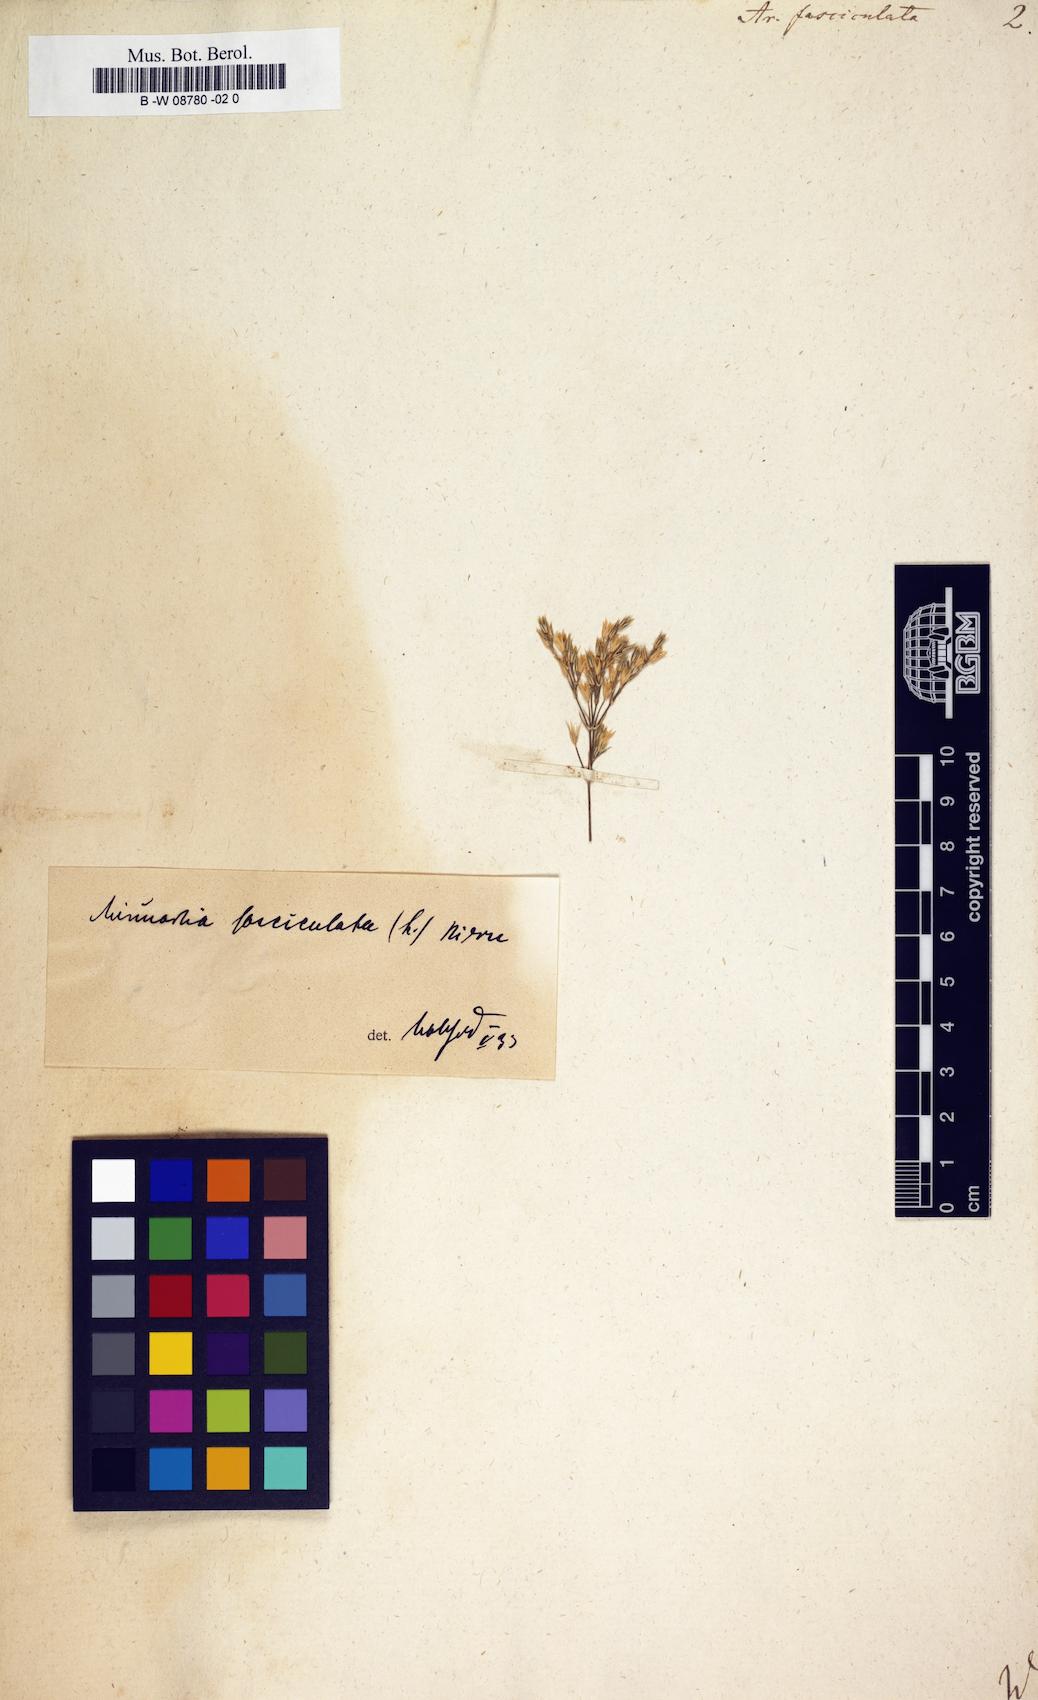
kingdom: Plantae
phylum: Tracheophyta
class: Magnoliopsida
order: Caryophyllales
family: Caryophyllaceae
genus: Minuartia
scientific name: Minuartia mucronata
